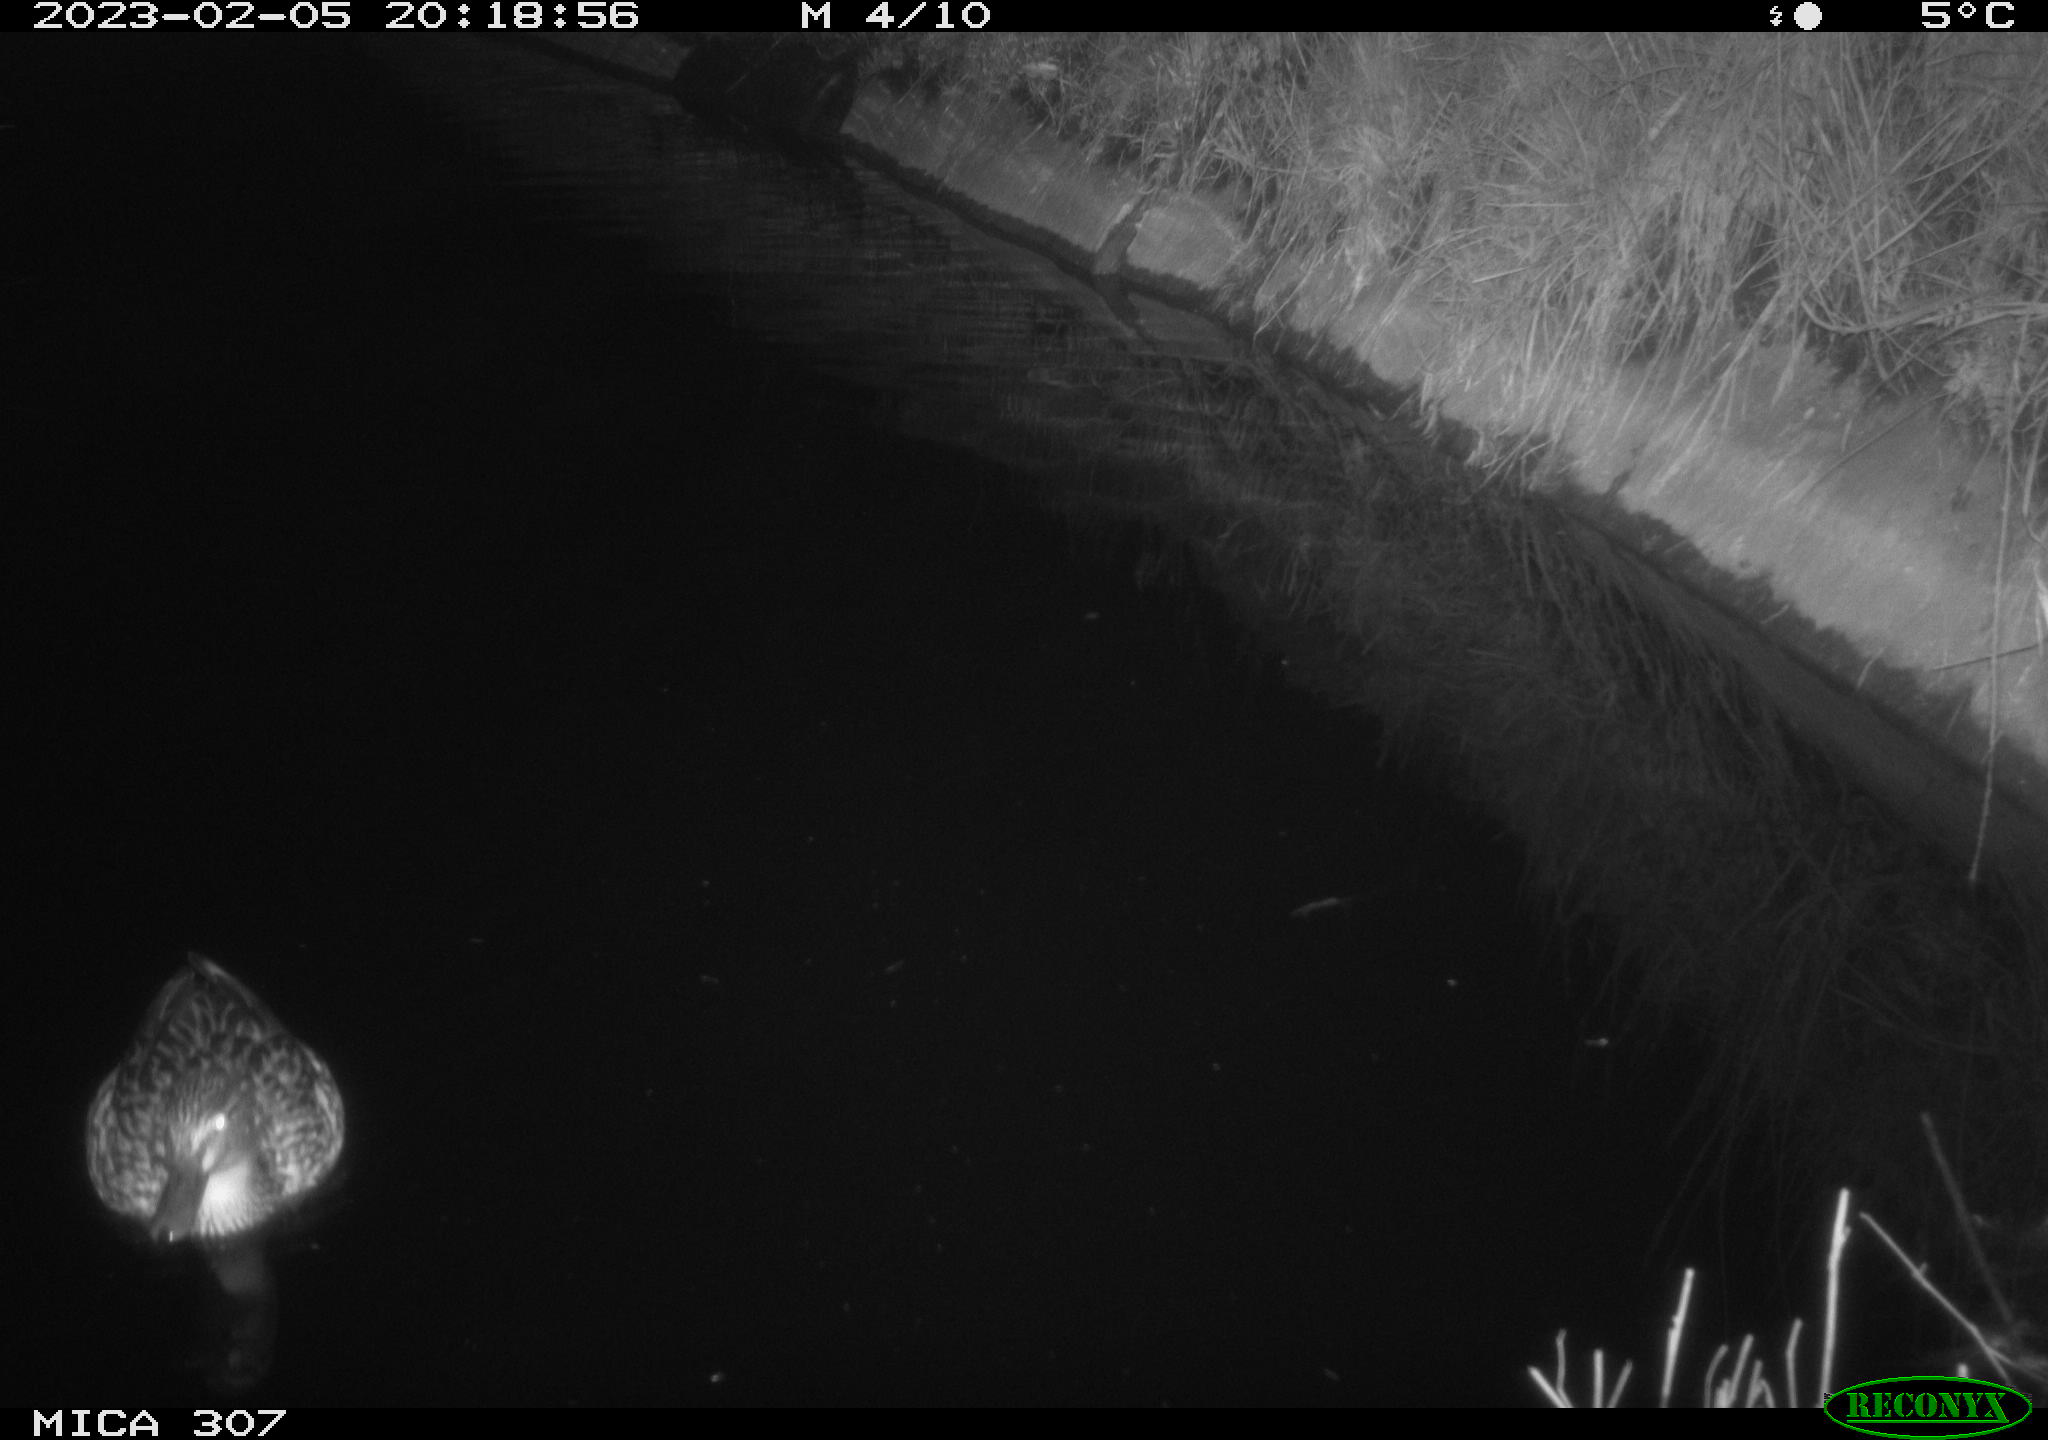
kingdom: Animalia
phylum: Chordata
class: Aves
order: Anseriformes
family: Anatidae
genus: Anas
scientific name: Anas
